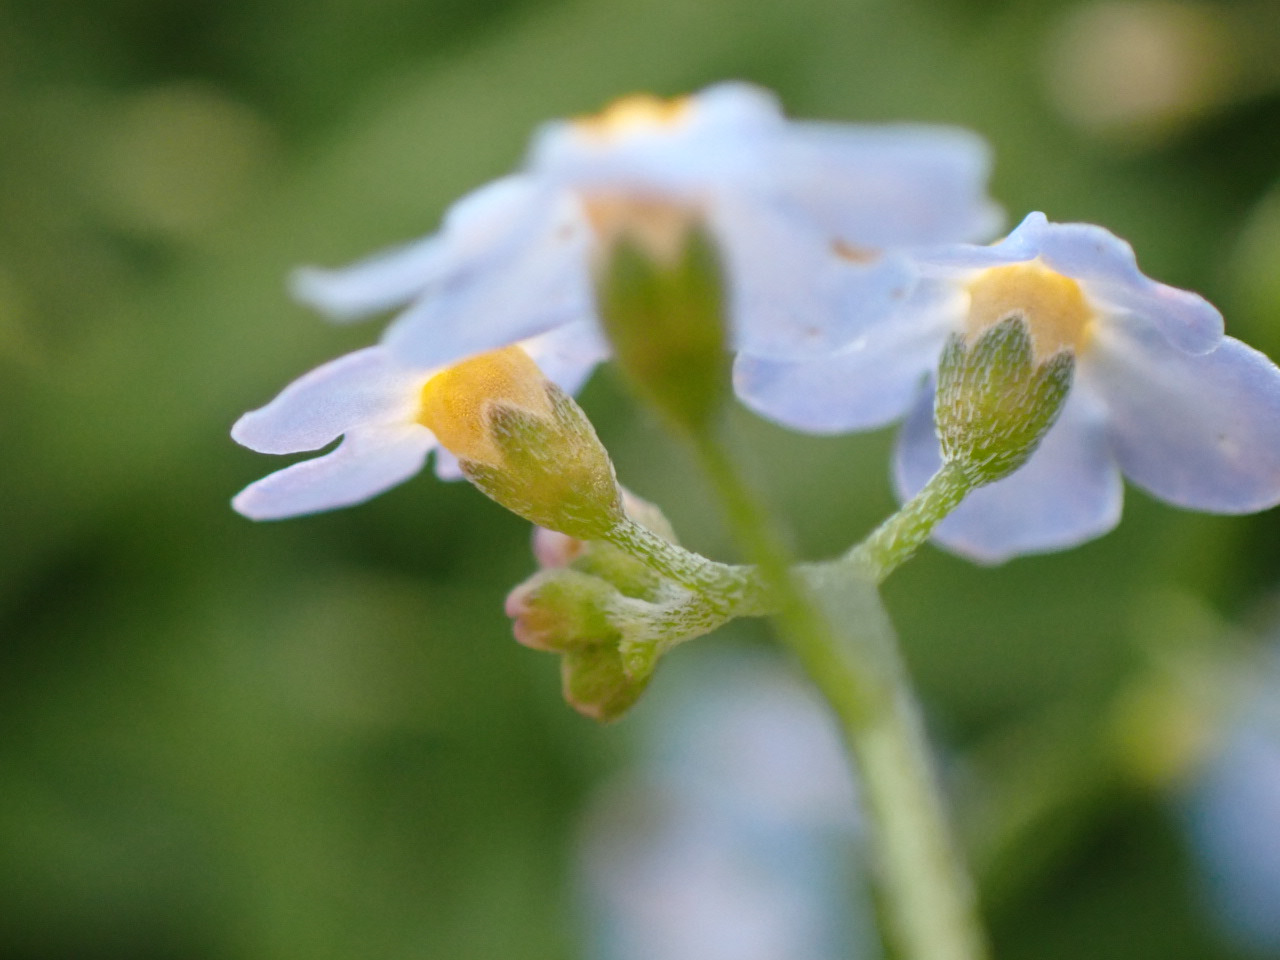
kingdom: Plantae
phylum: Tracheophyta
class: Magnoliopsida
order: Boraginales
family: Boraginaceae
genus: Myosotis
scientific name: Myosotis scorpioides
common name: Eng-forglemmigej
